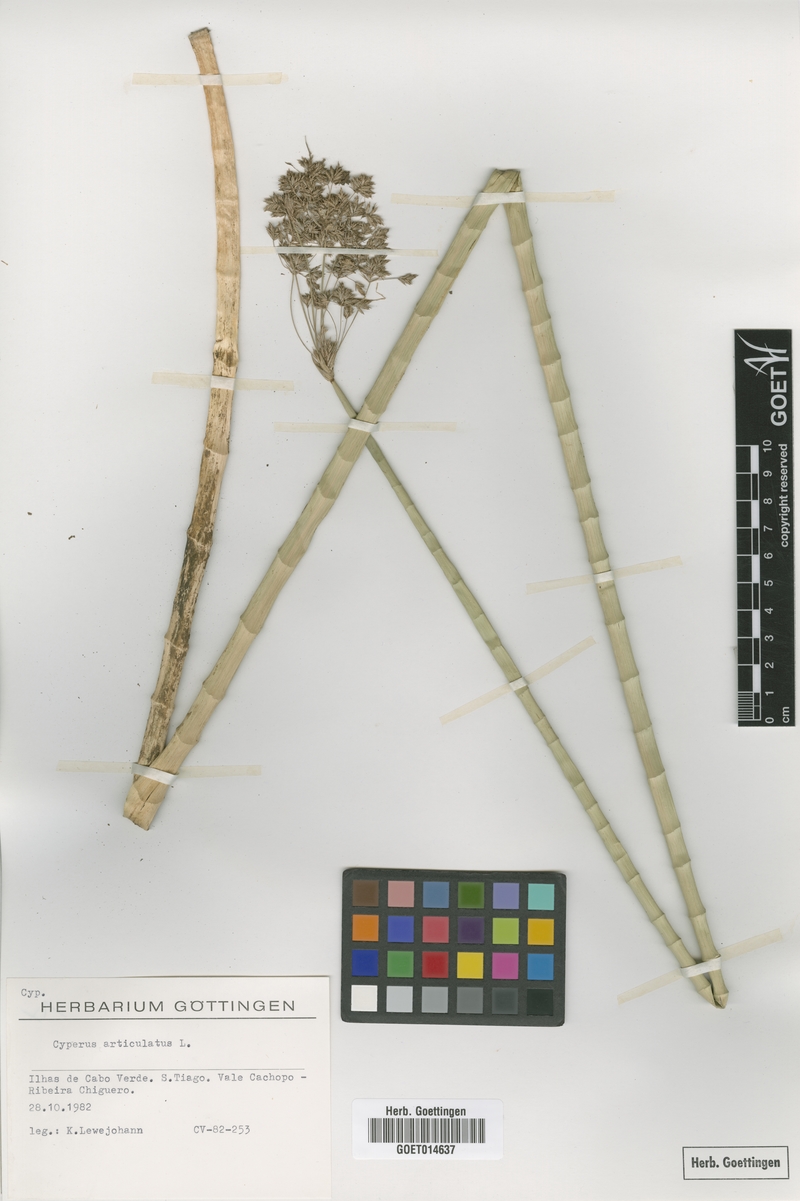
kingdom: Plantae
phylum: Tracheophyta
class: Liliopsida
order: Poales
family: Cyperaceae
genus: Cyperus
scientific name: Cyperus articulatus
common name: Jointed flatsedge
